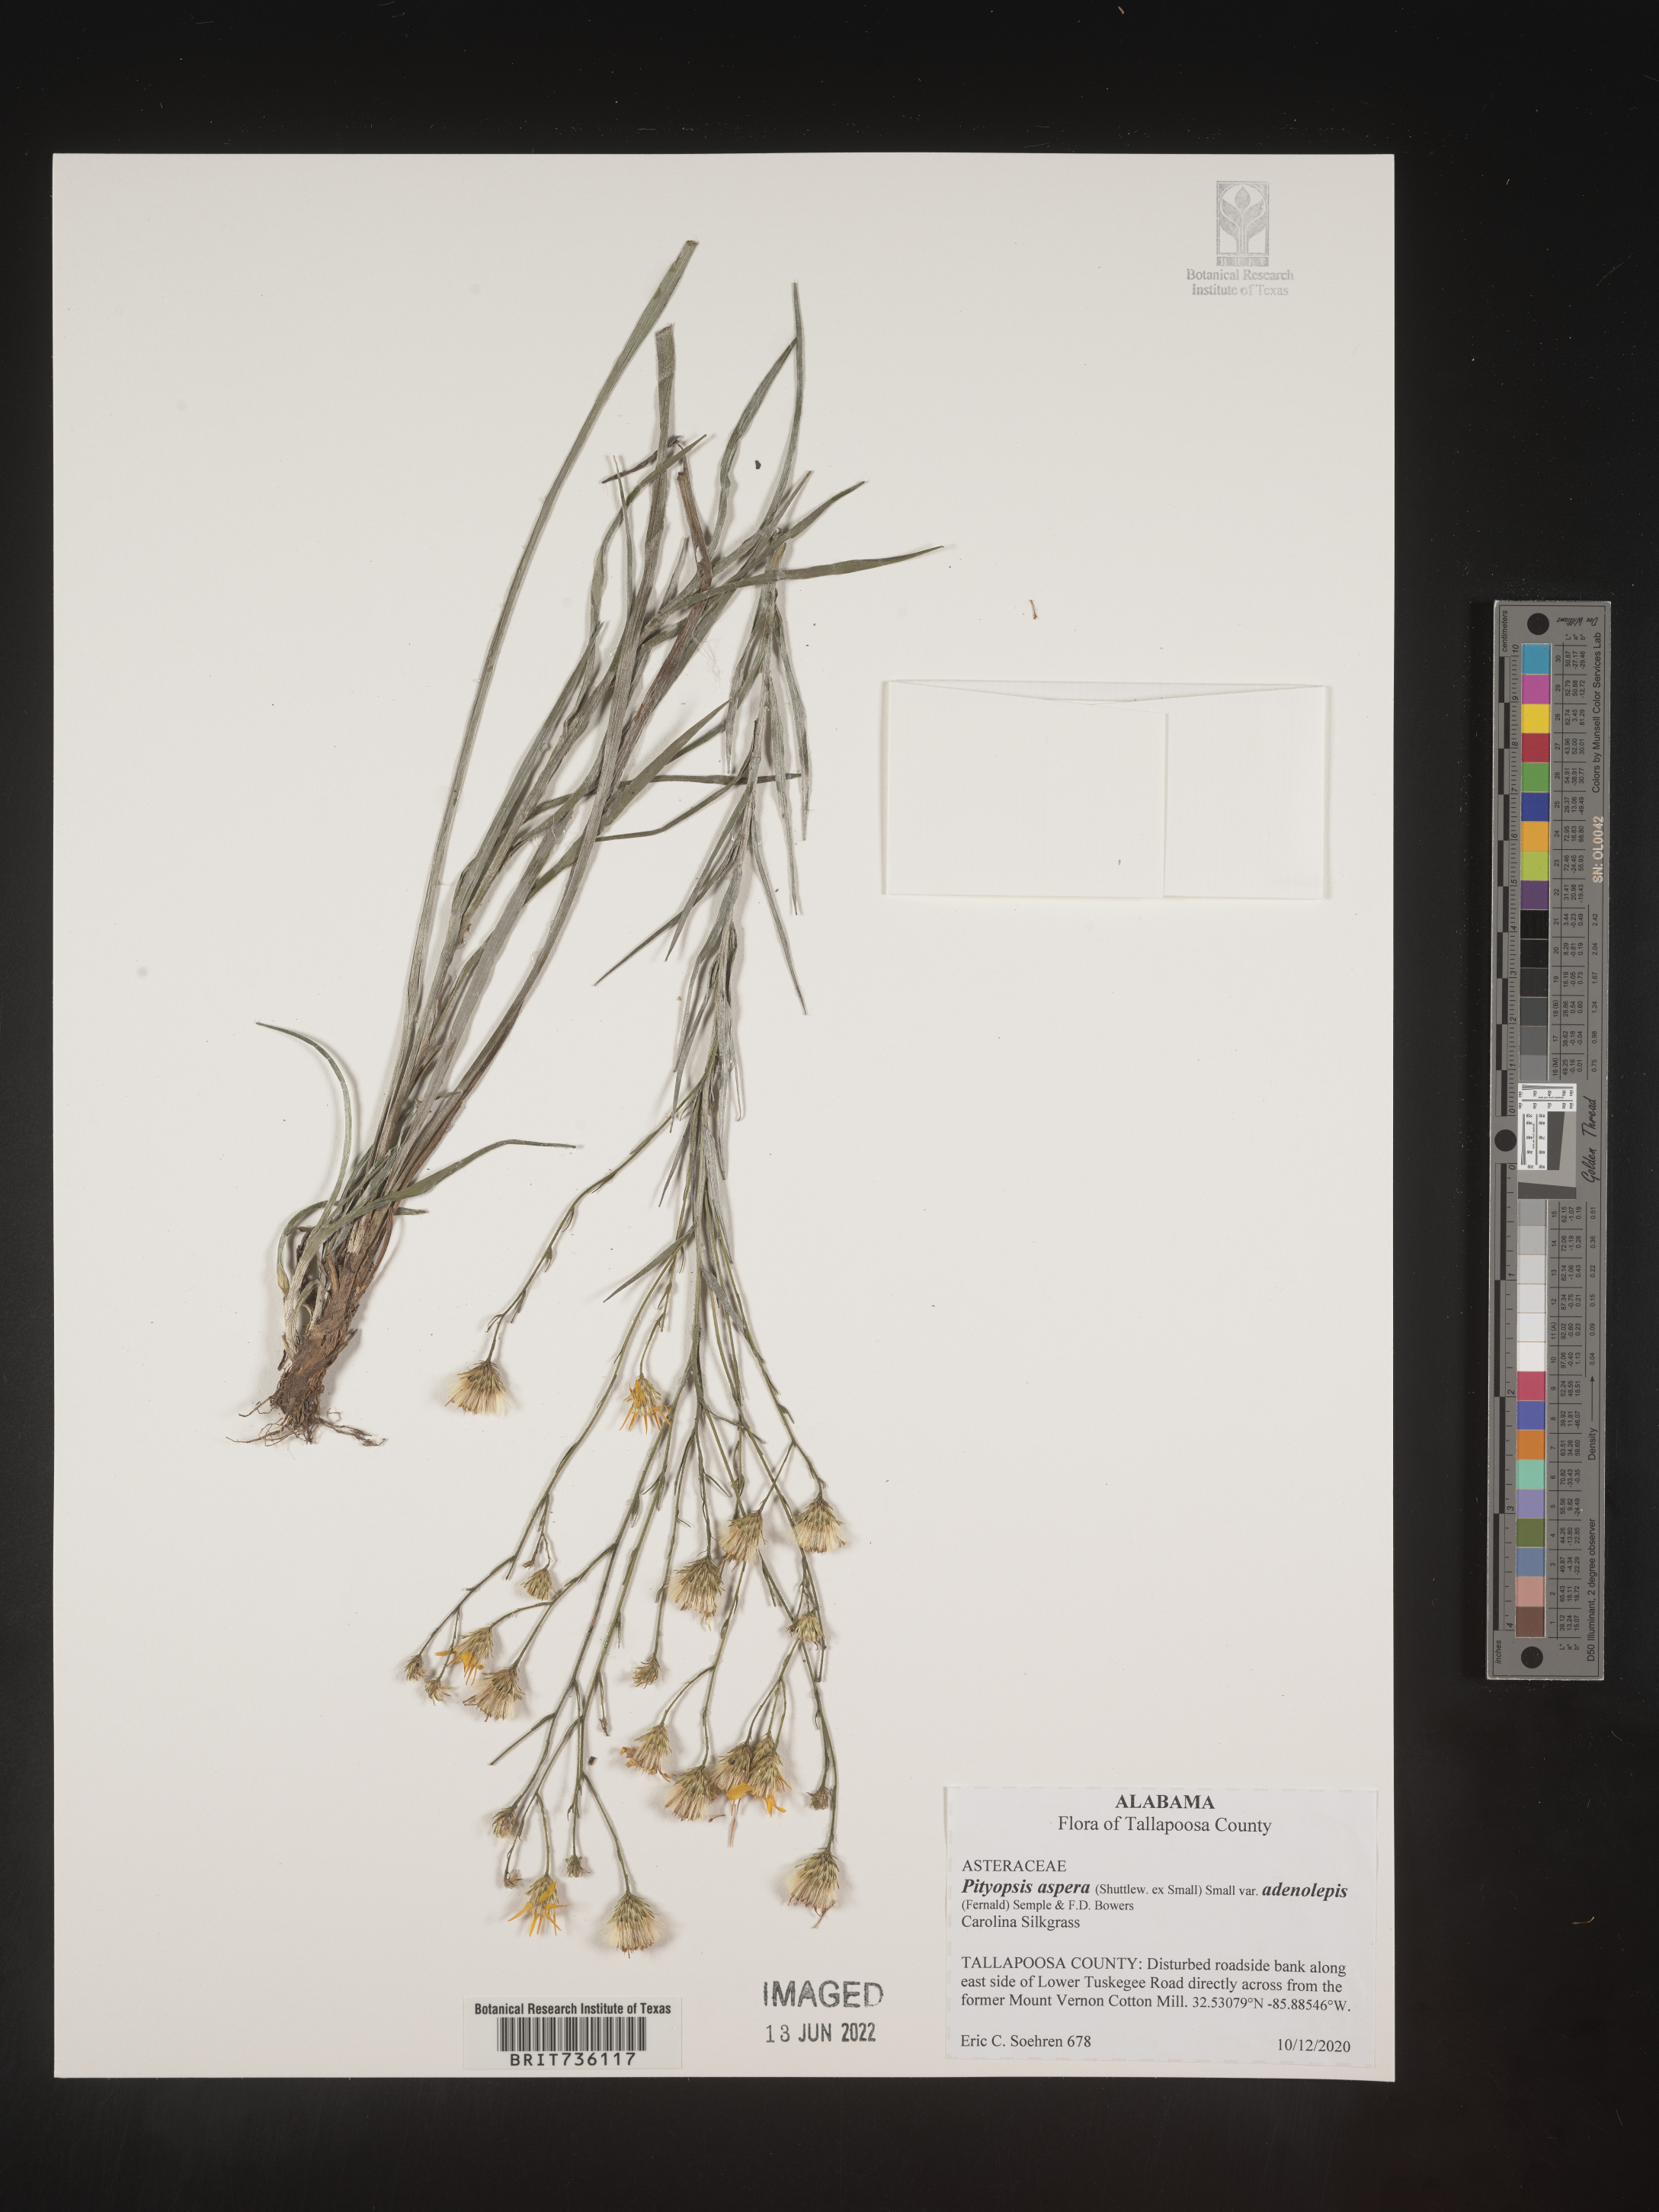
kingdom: Plantae
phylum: Tracheophyta
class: Magnoliopsida
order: Asterales
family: Asteraceae
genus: Pityopsis
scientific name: Pityopsis aspera
